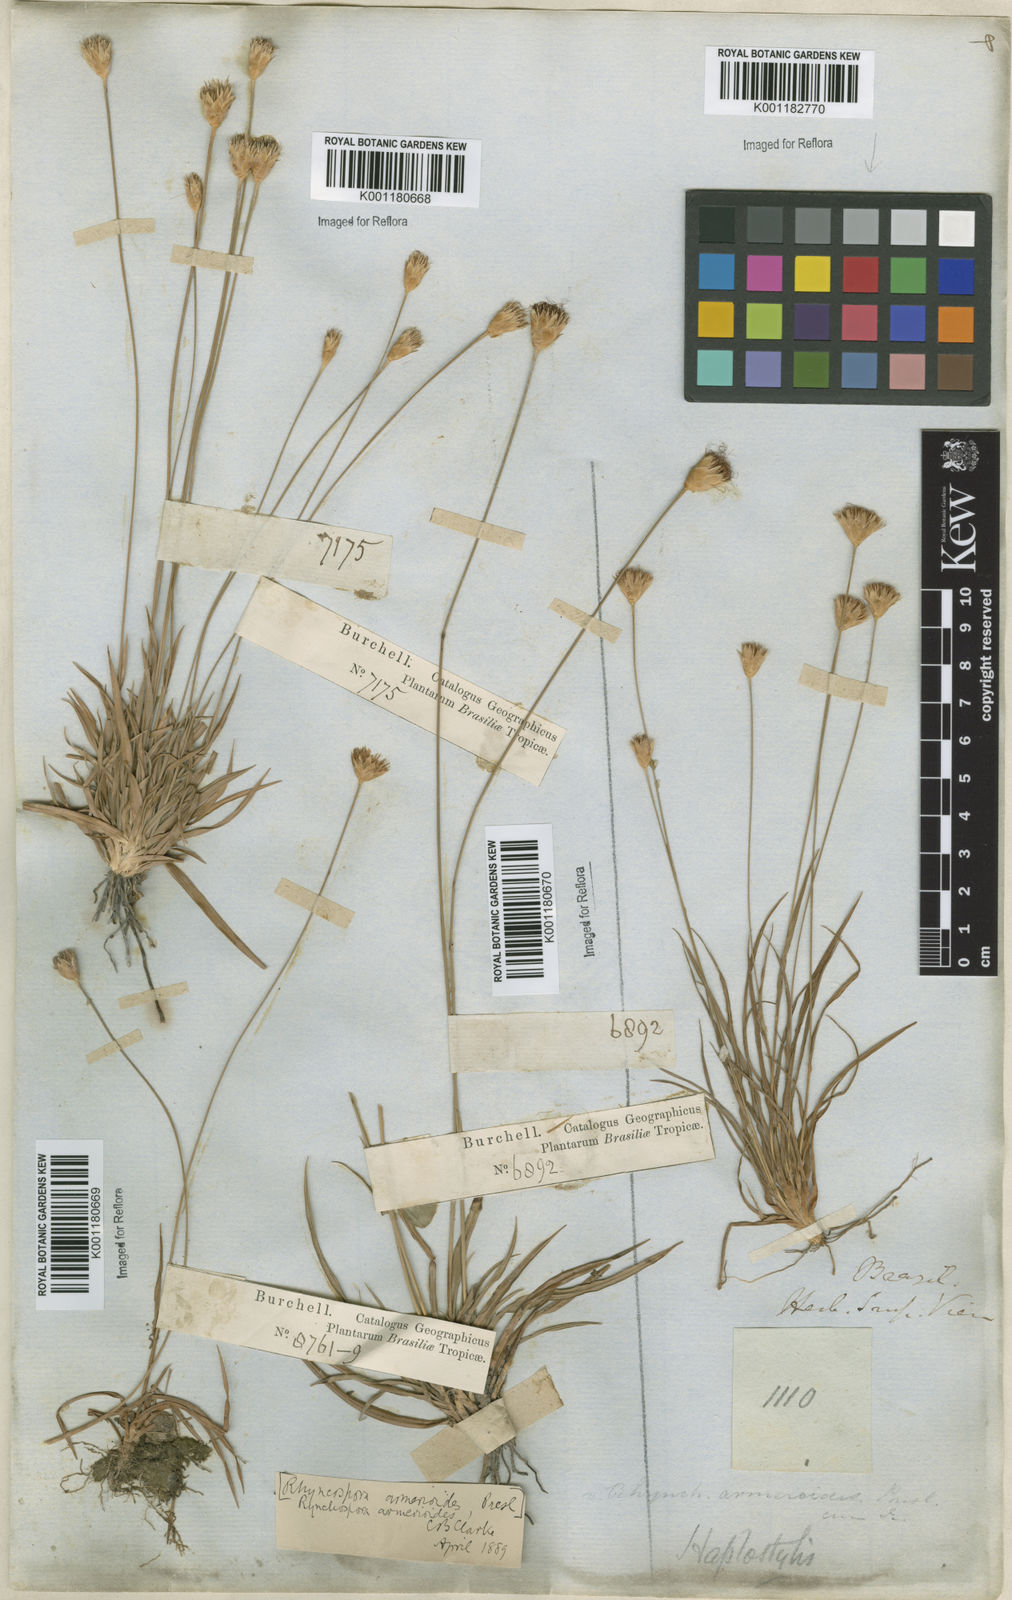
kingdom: Plantae
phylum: Tracheophyta
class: Liliopsida
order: Poales
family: Cyperaceae
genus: Rhynchospora
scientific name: Rhynchospora armerioides
